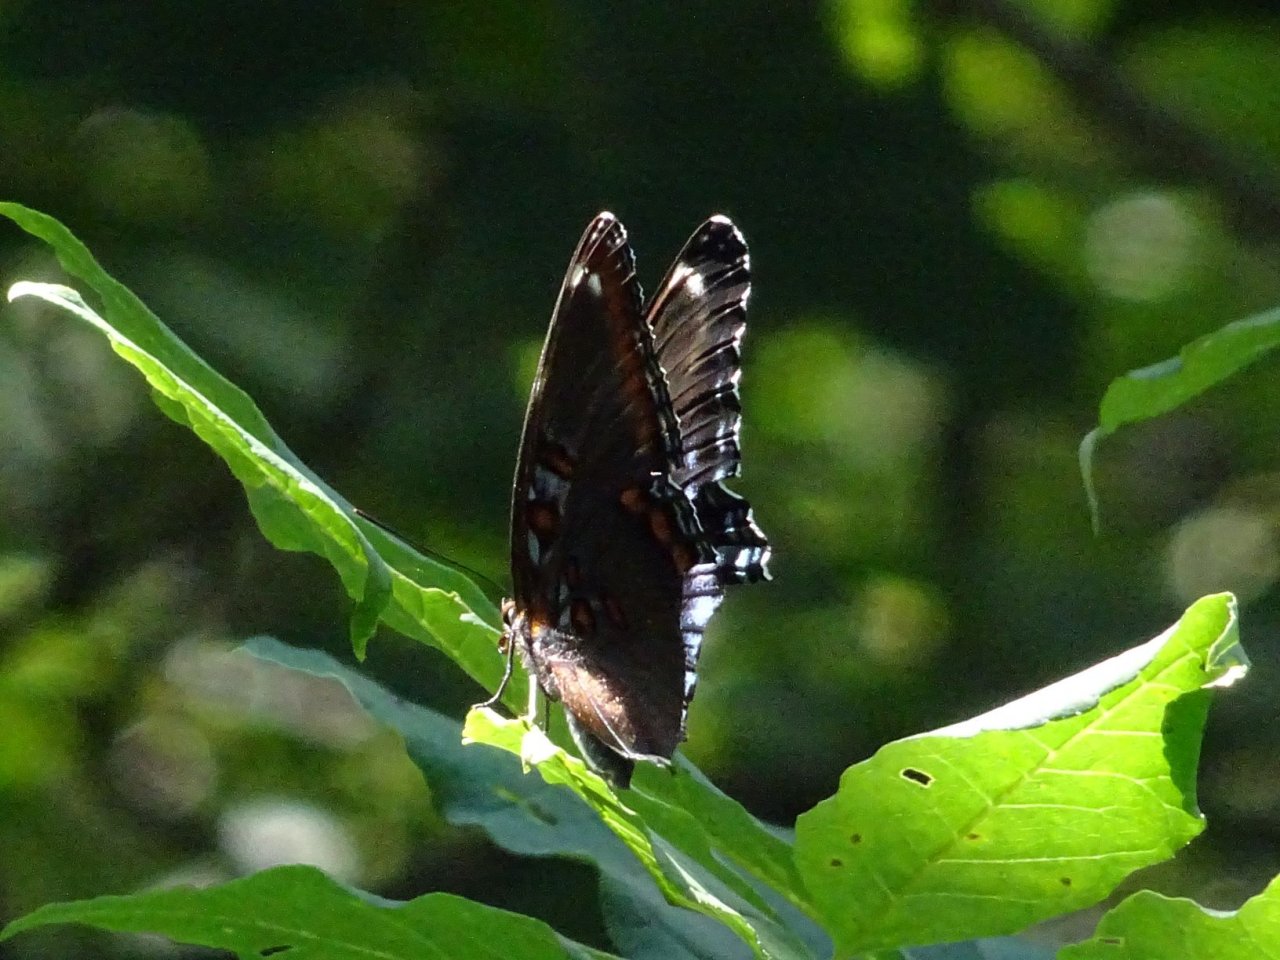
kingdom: Animalia
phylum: Arthropoda
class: Insecta
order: Lepidoptera
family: Nymphalidae
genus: Limenitis
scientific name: Limenitis astyanax
